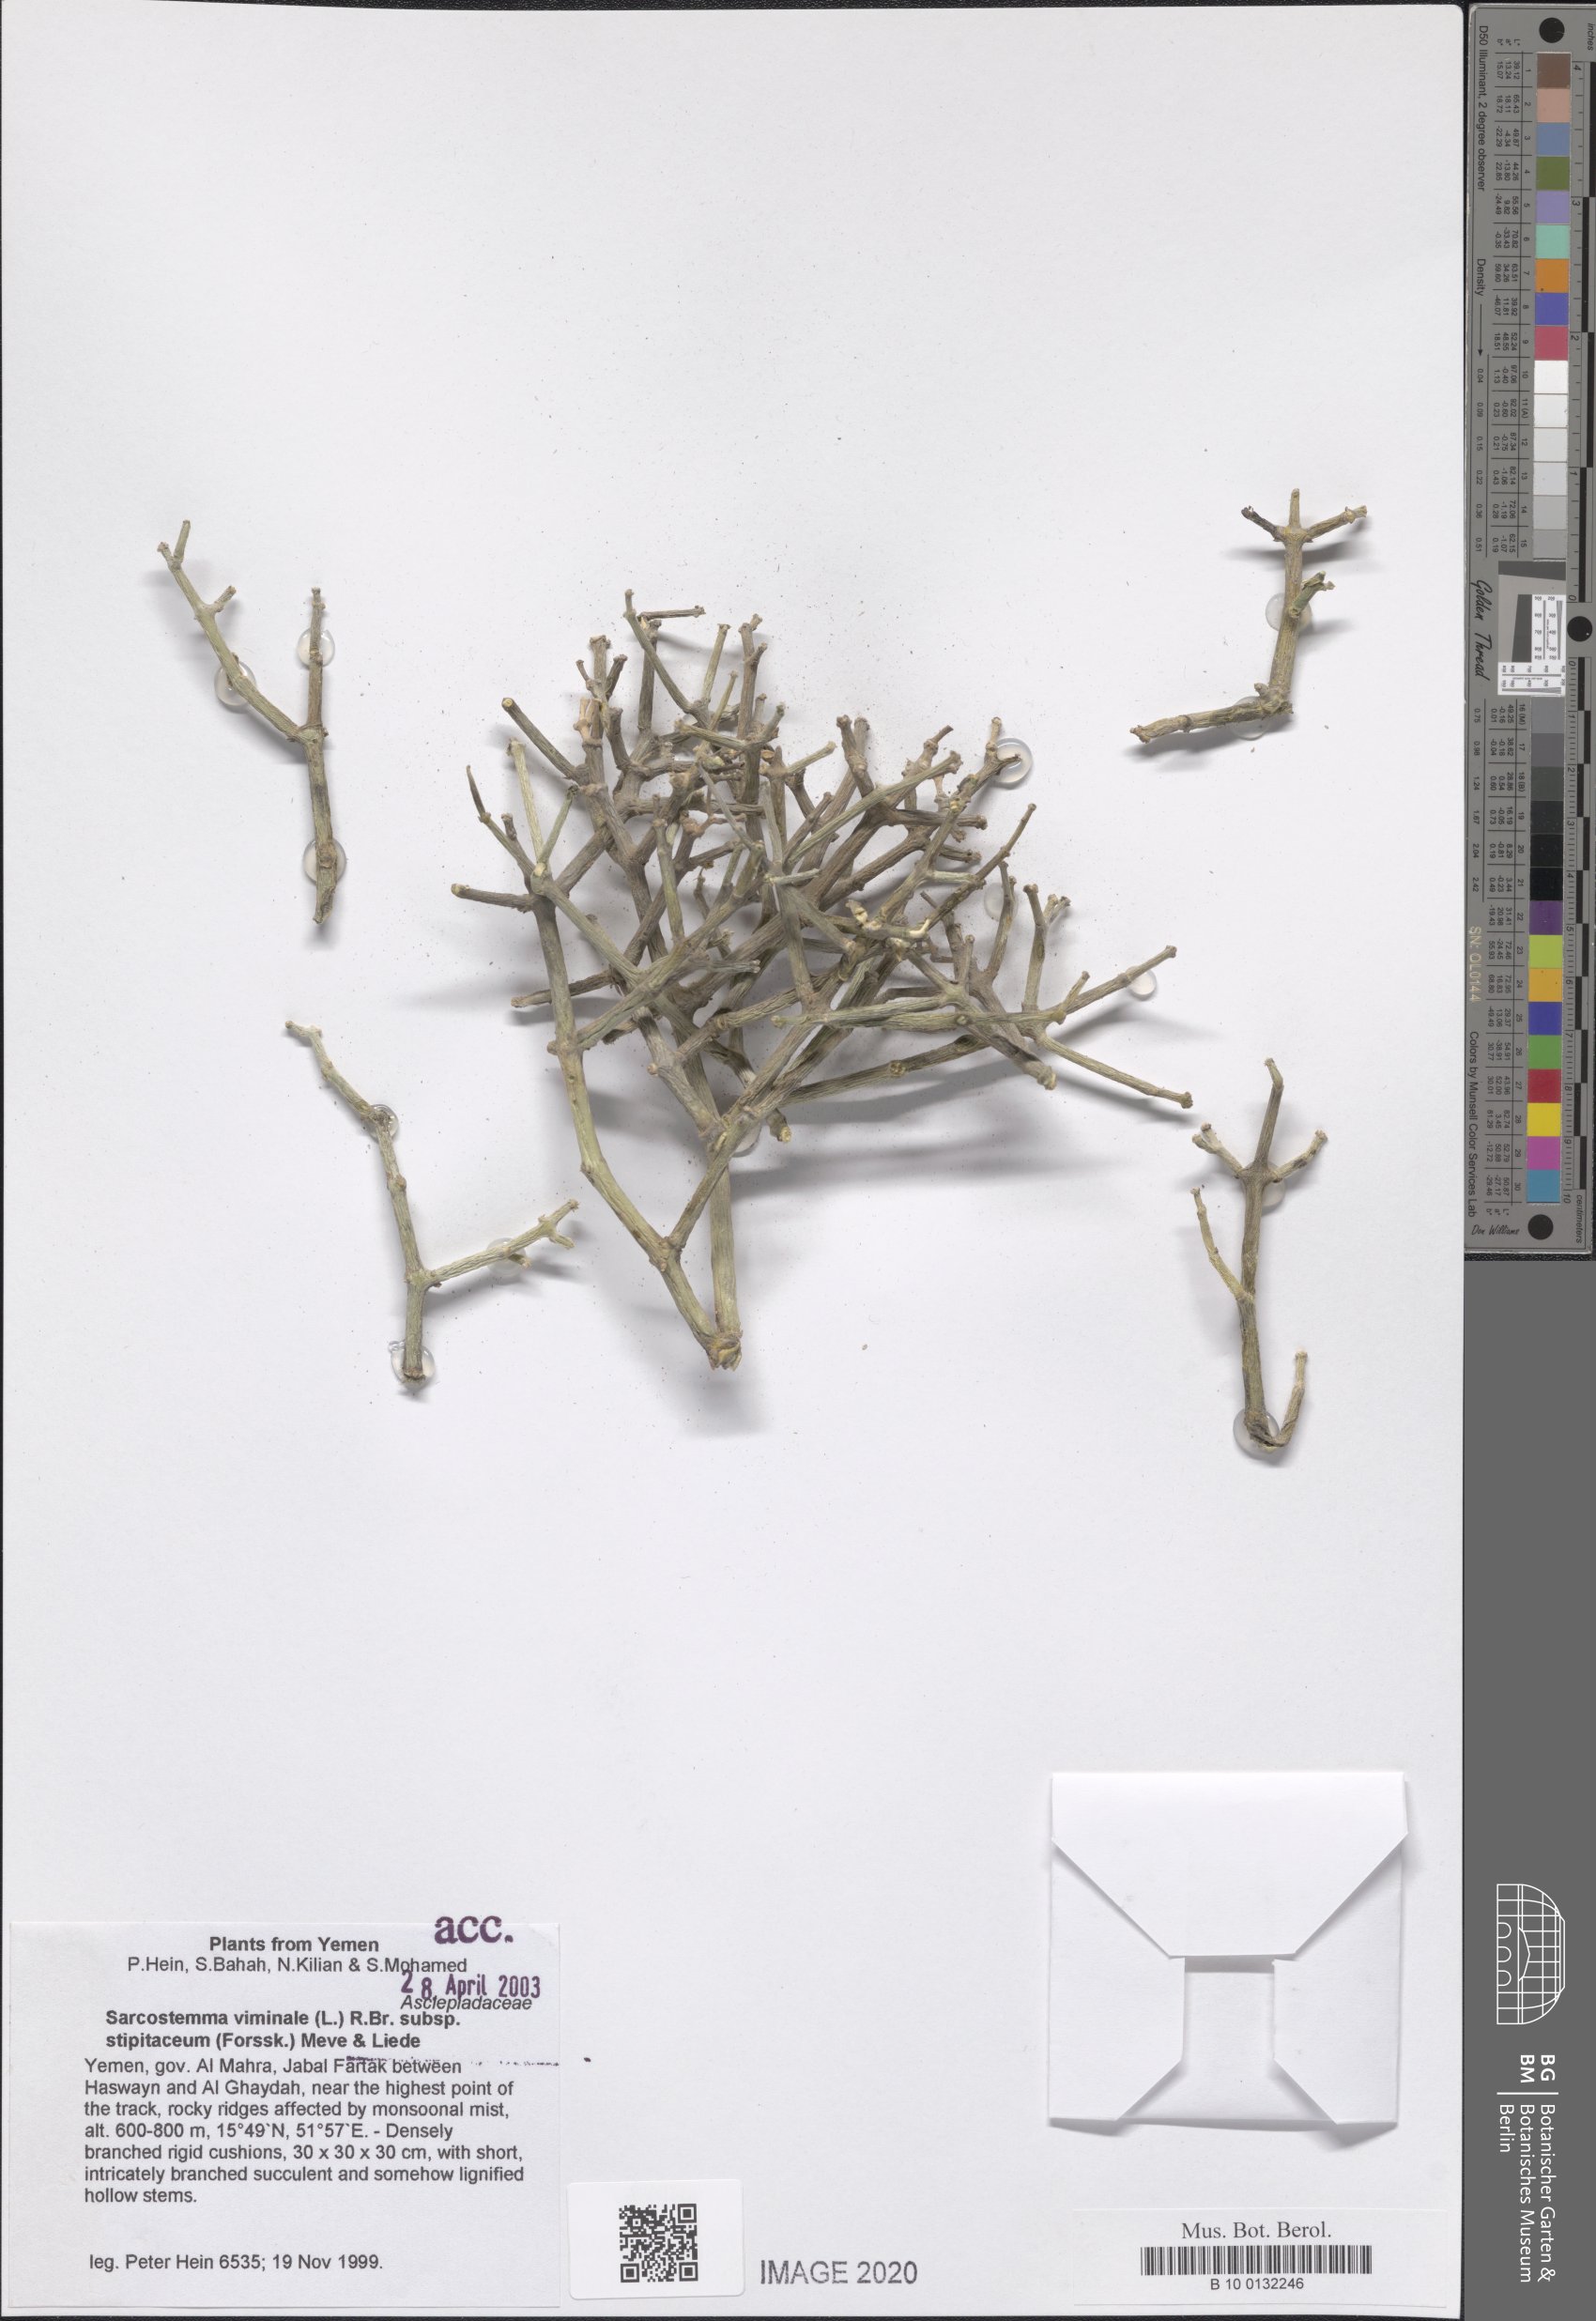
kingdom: Plantae
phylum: Tracheophyta
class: Magnoliopsida
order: Gentianales
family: Apocynaceae
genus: Cynanchum
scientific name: Cynanchum viminale
